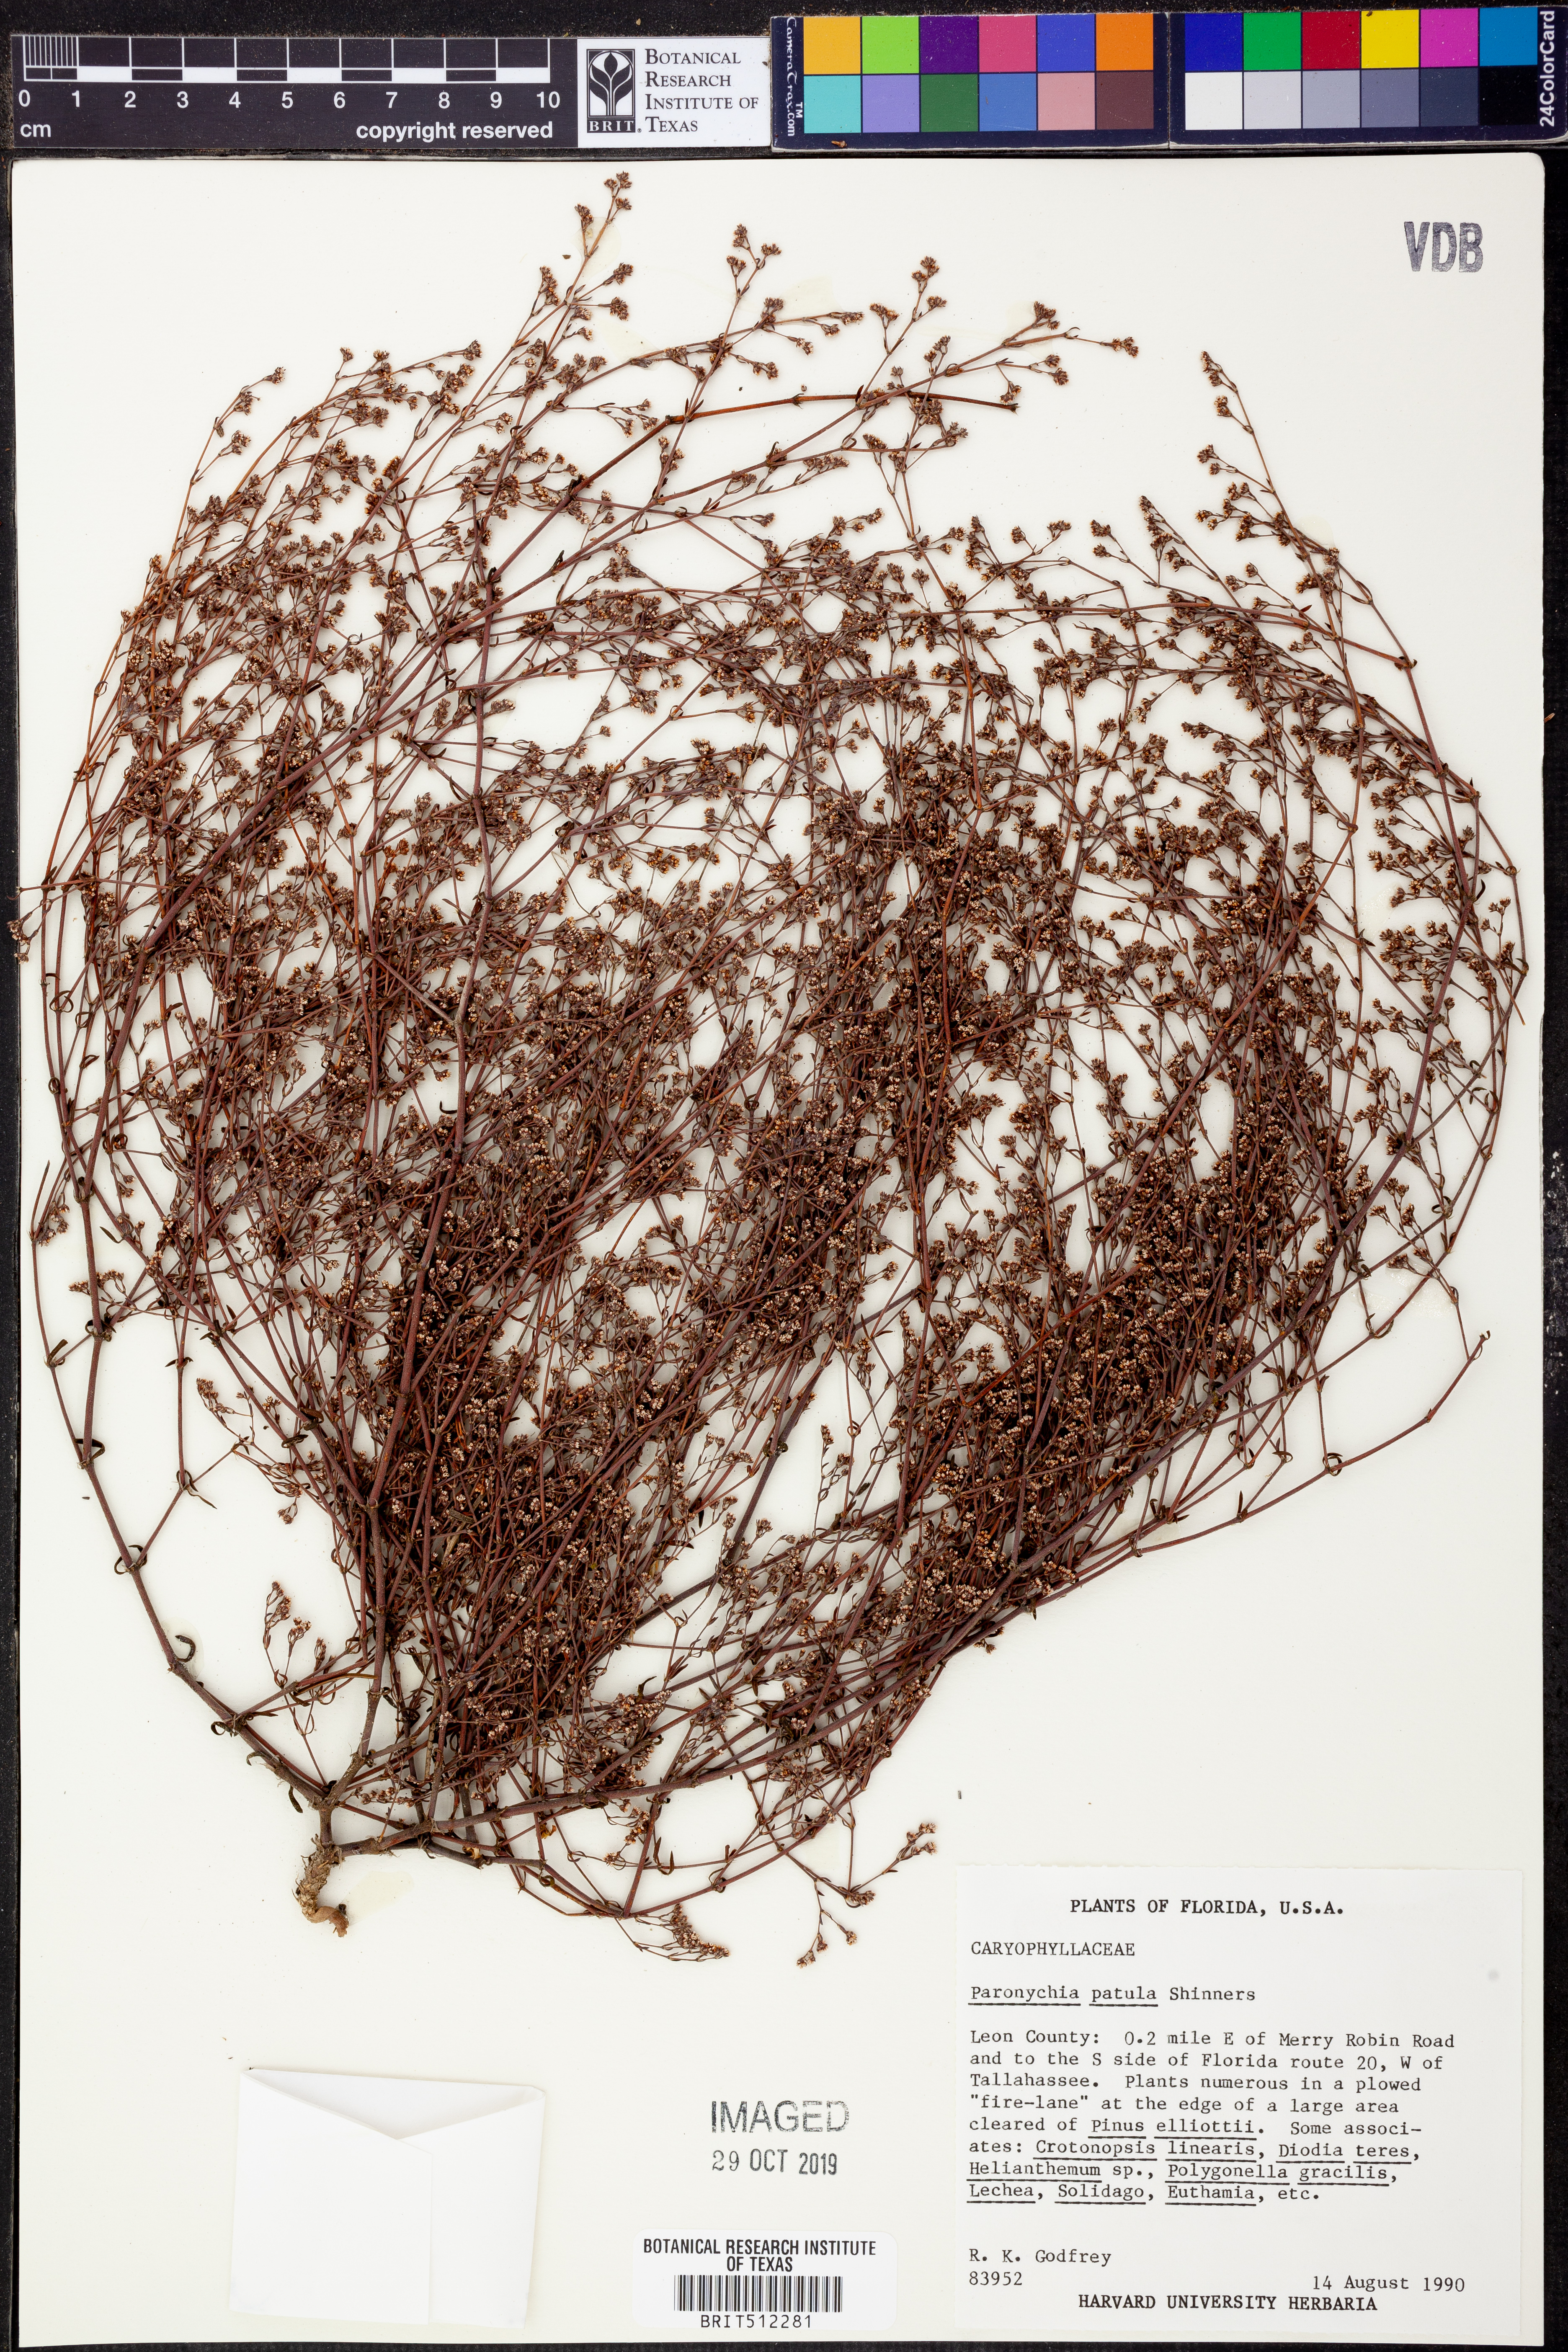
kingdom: Plantae
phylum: Tracheophyta
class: Magnoliopsida
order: Caryophyllales
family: Caryophyllaceae
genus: Paronychia
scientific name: Paronychia patula
